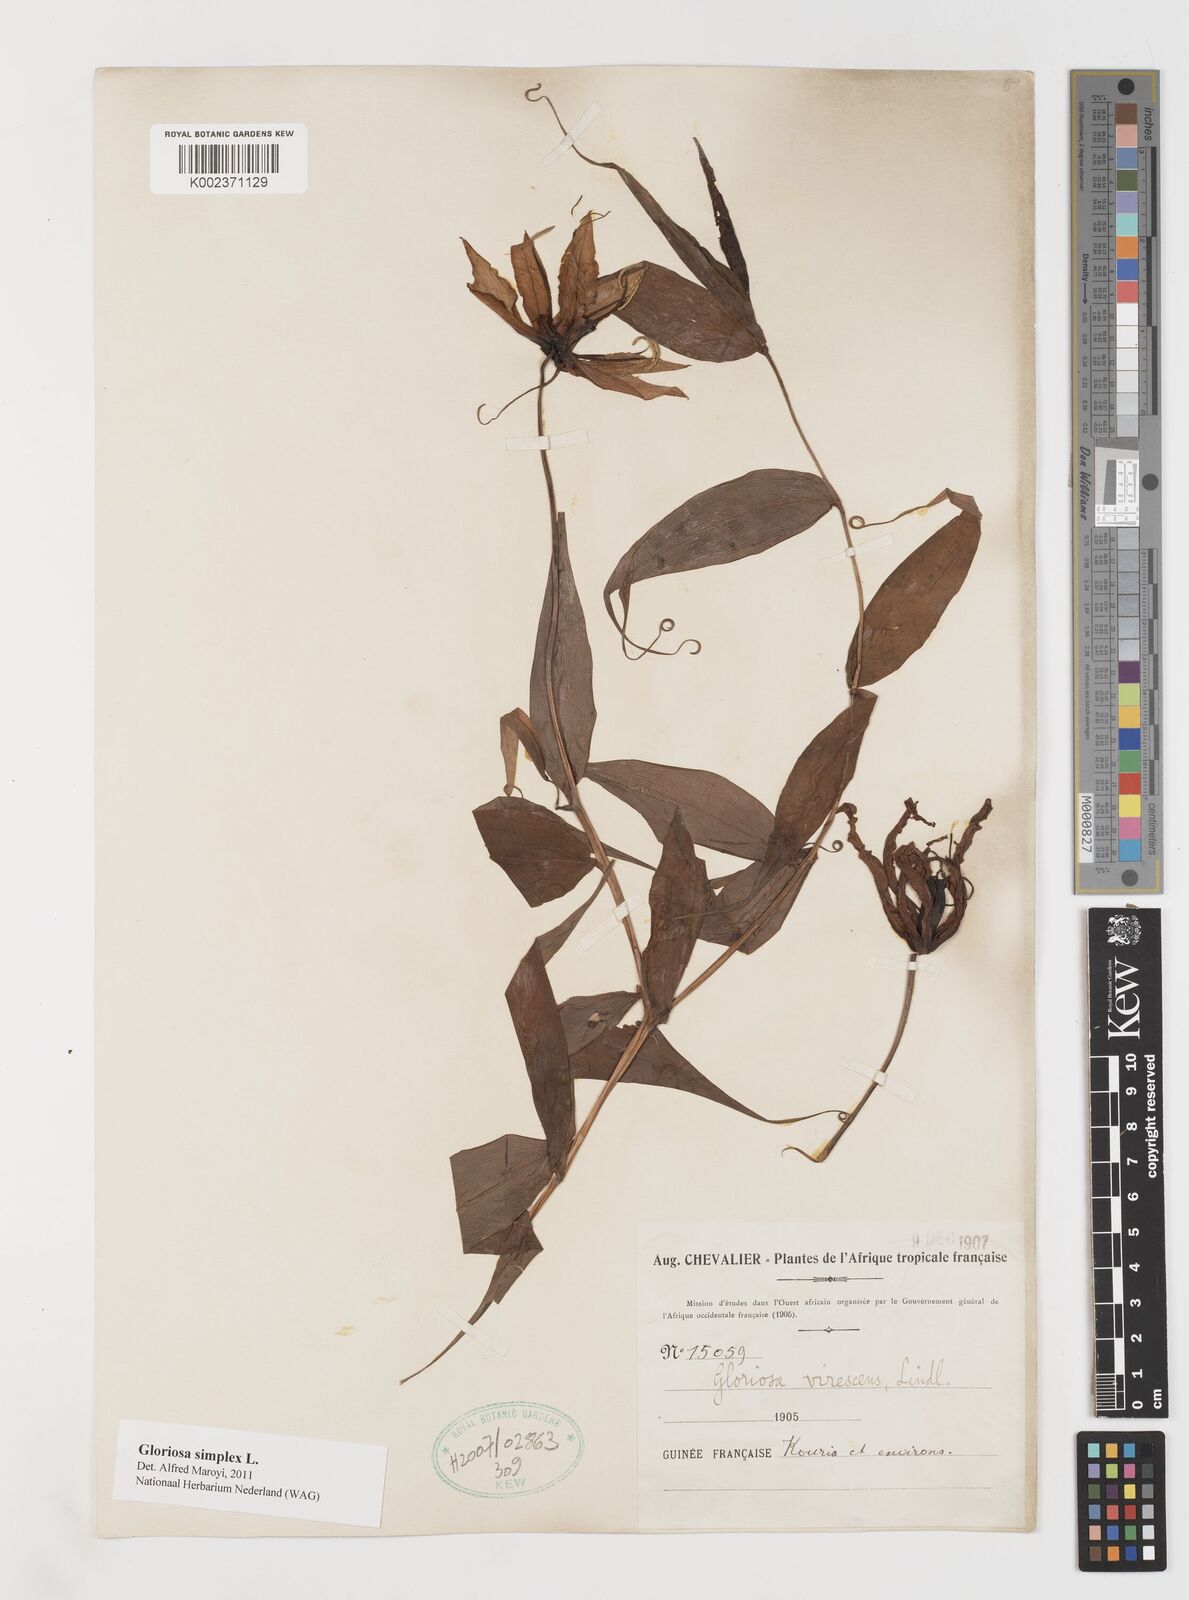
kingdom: Plantae
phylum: Tracheophyta
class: Liliopsida
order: Liliales
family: Colchicaceae
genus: Gloriosa
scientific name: Gloriosa simplex
